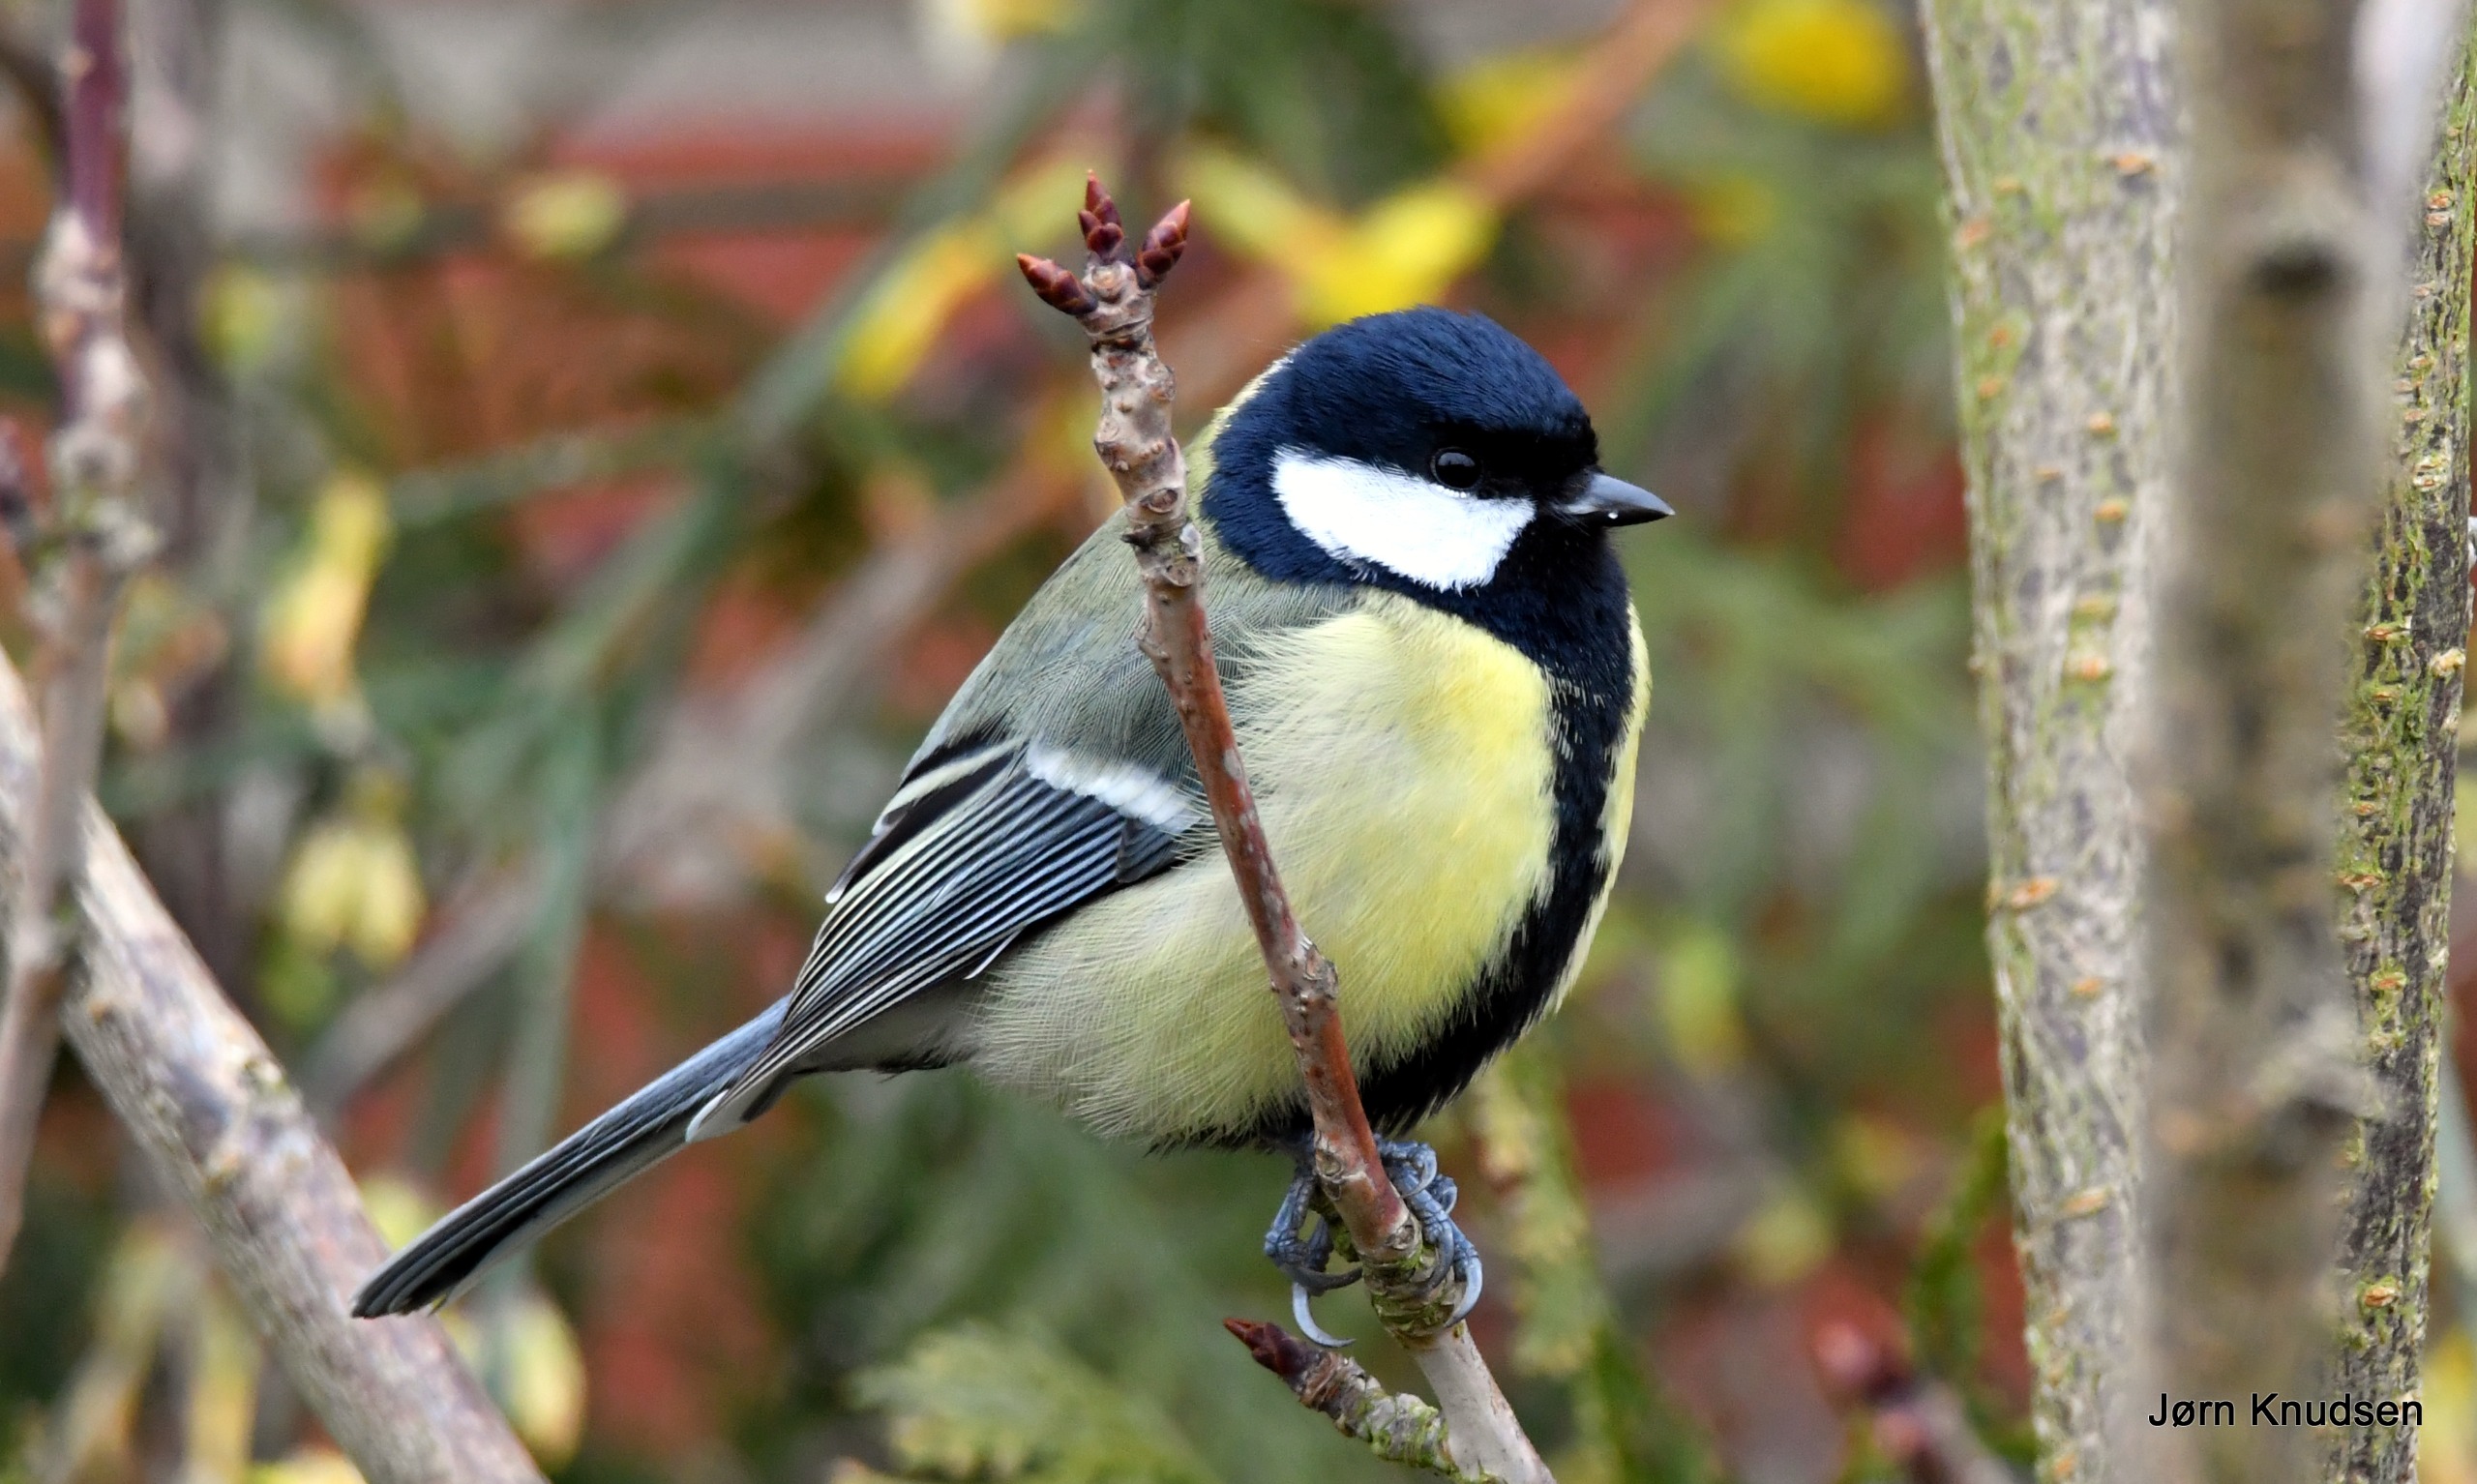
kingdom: Animalia
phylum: Chordata
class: Aves
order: Passeriformes
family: Paridae
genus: Parus
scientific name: Parus major
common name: Musvit
